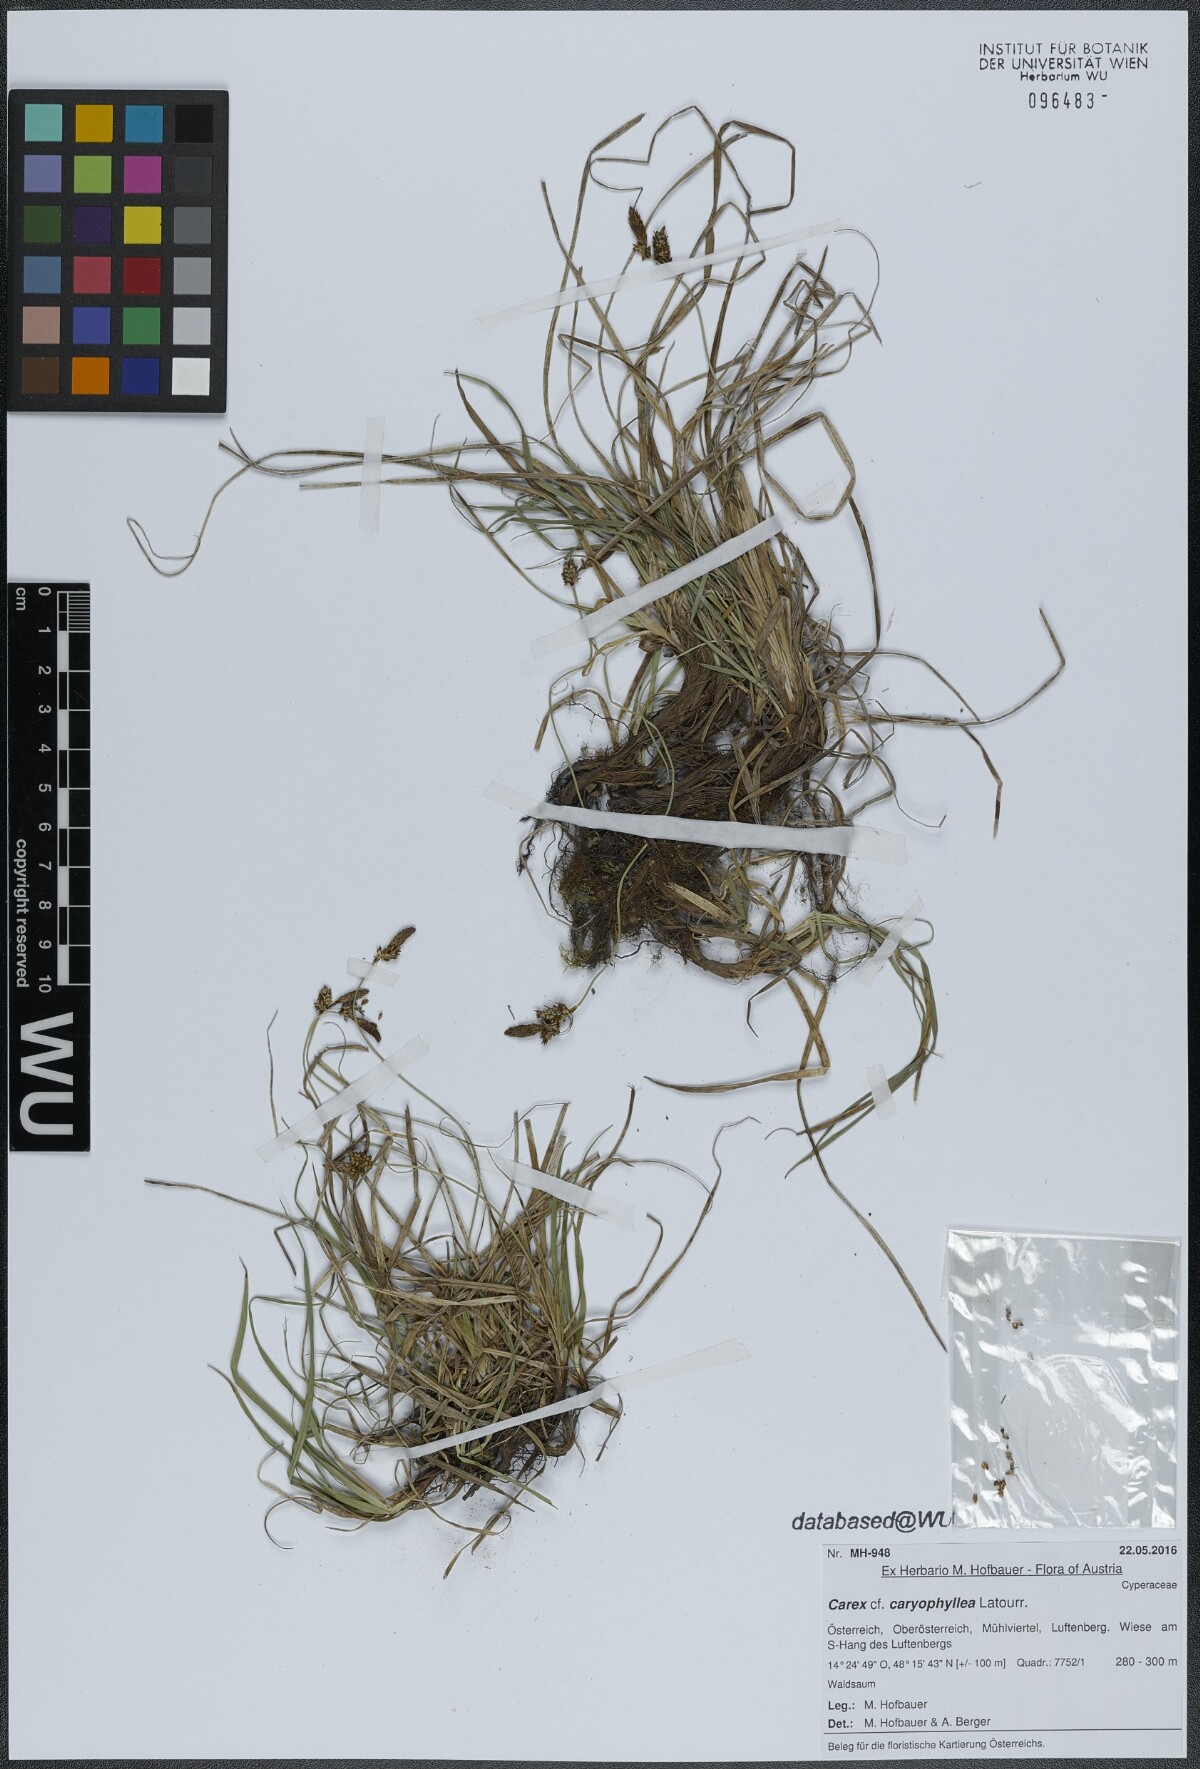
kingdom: Plantae
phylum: Tracheophyta
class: Liliopsida
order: Poales
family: Cyperaceae
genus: Carex
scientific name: Carex caryophyllea
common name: Spring sedge
